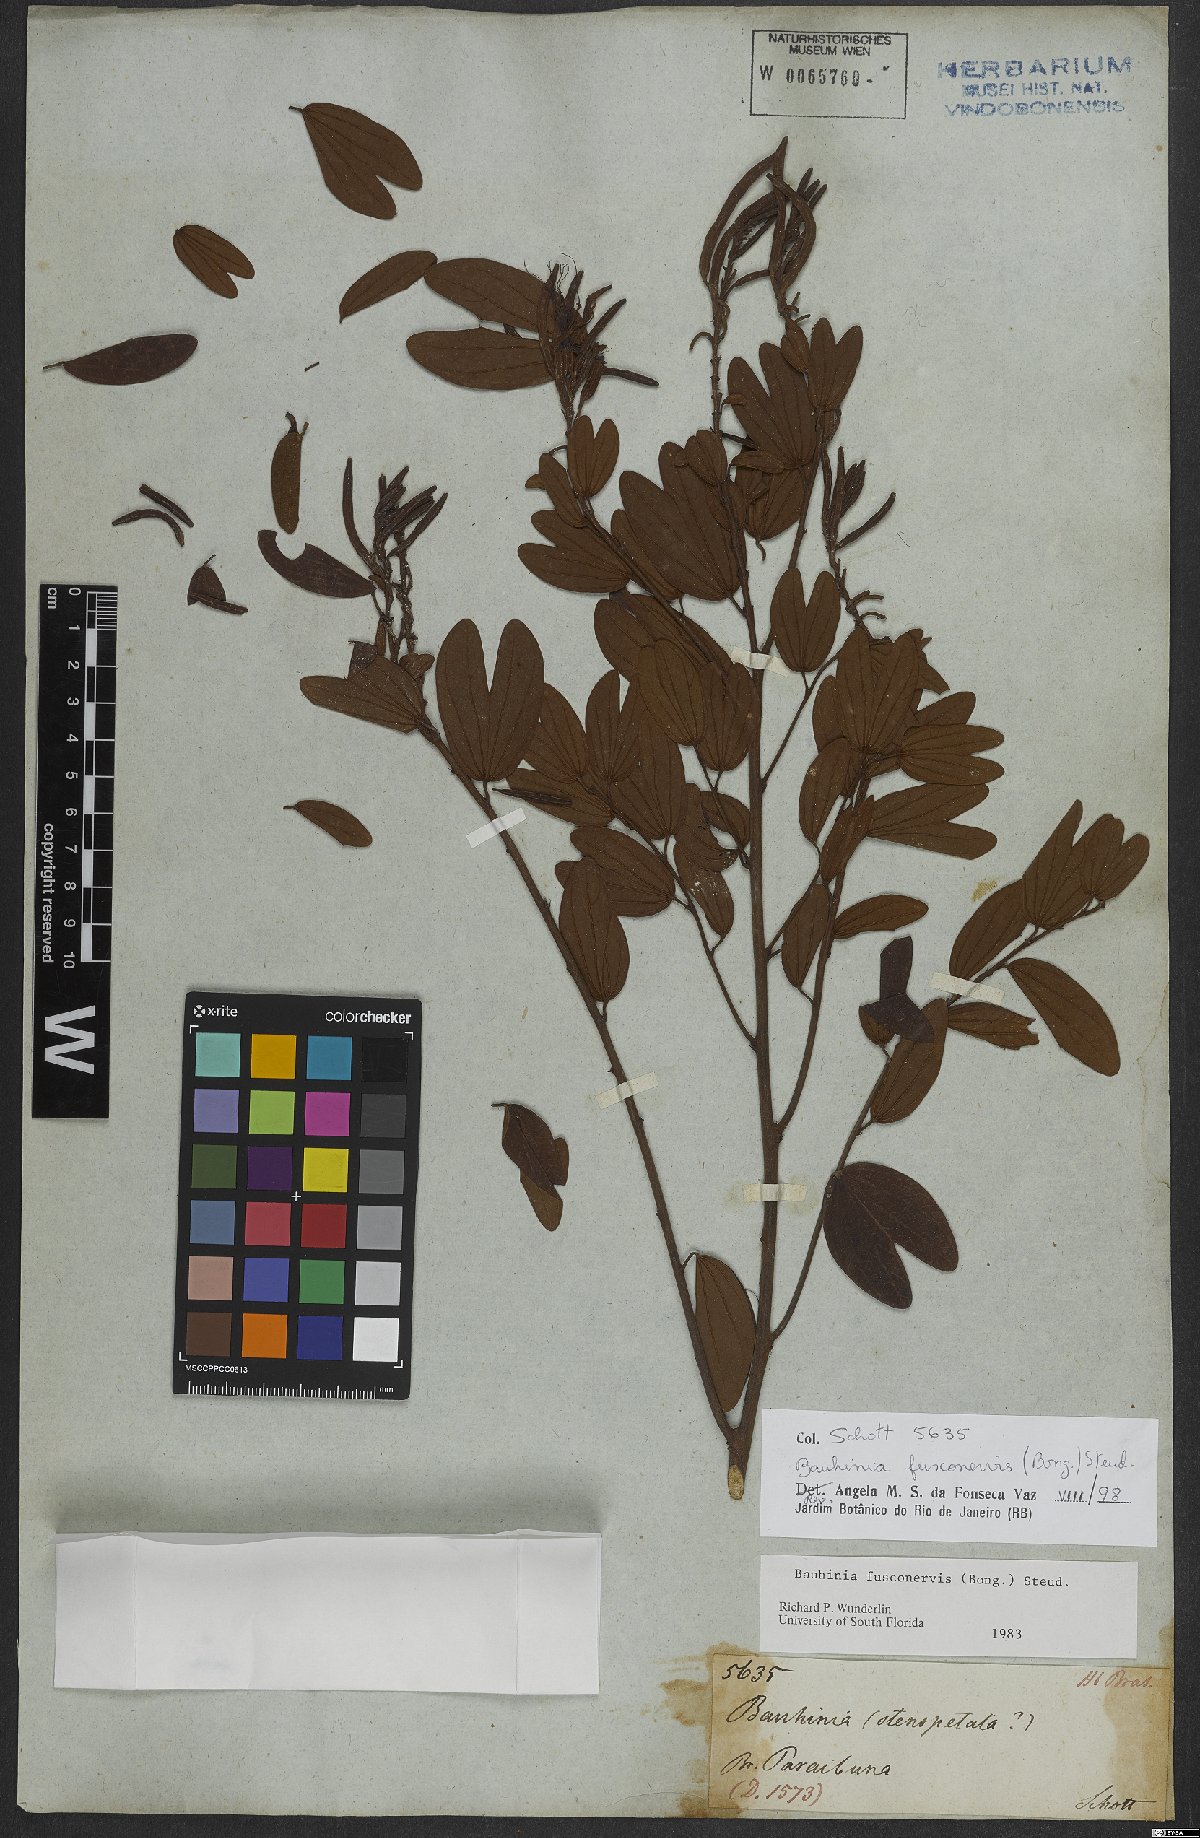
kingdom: Plantae
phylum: Tracheophyta
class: Magnoliopsida
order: Fabales
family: Fabaceae
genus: Bauhinia
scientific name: Bauhinia fusconervis
